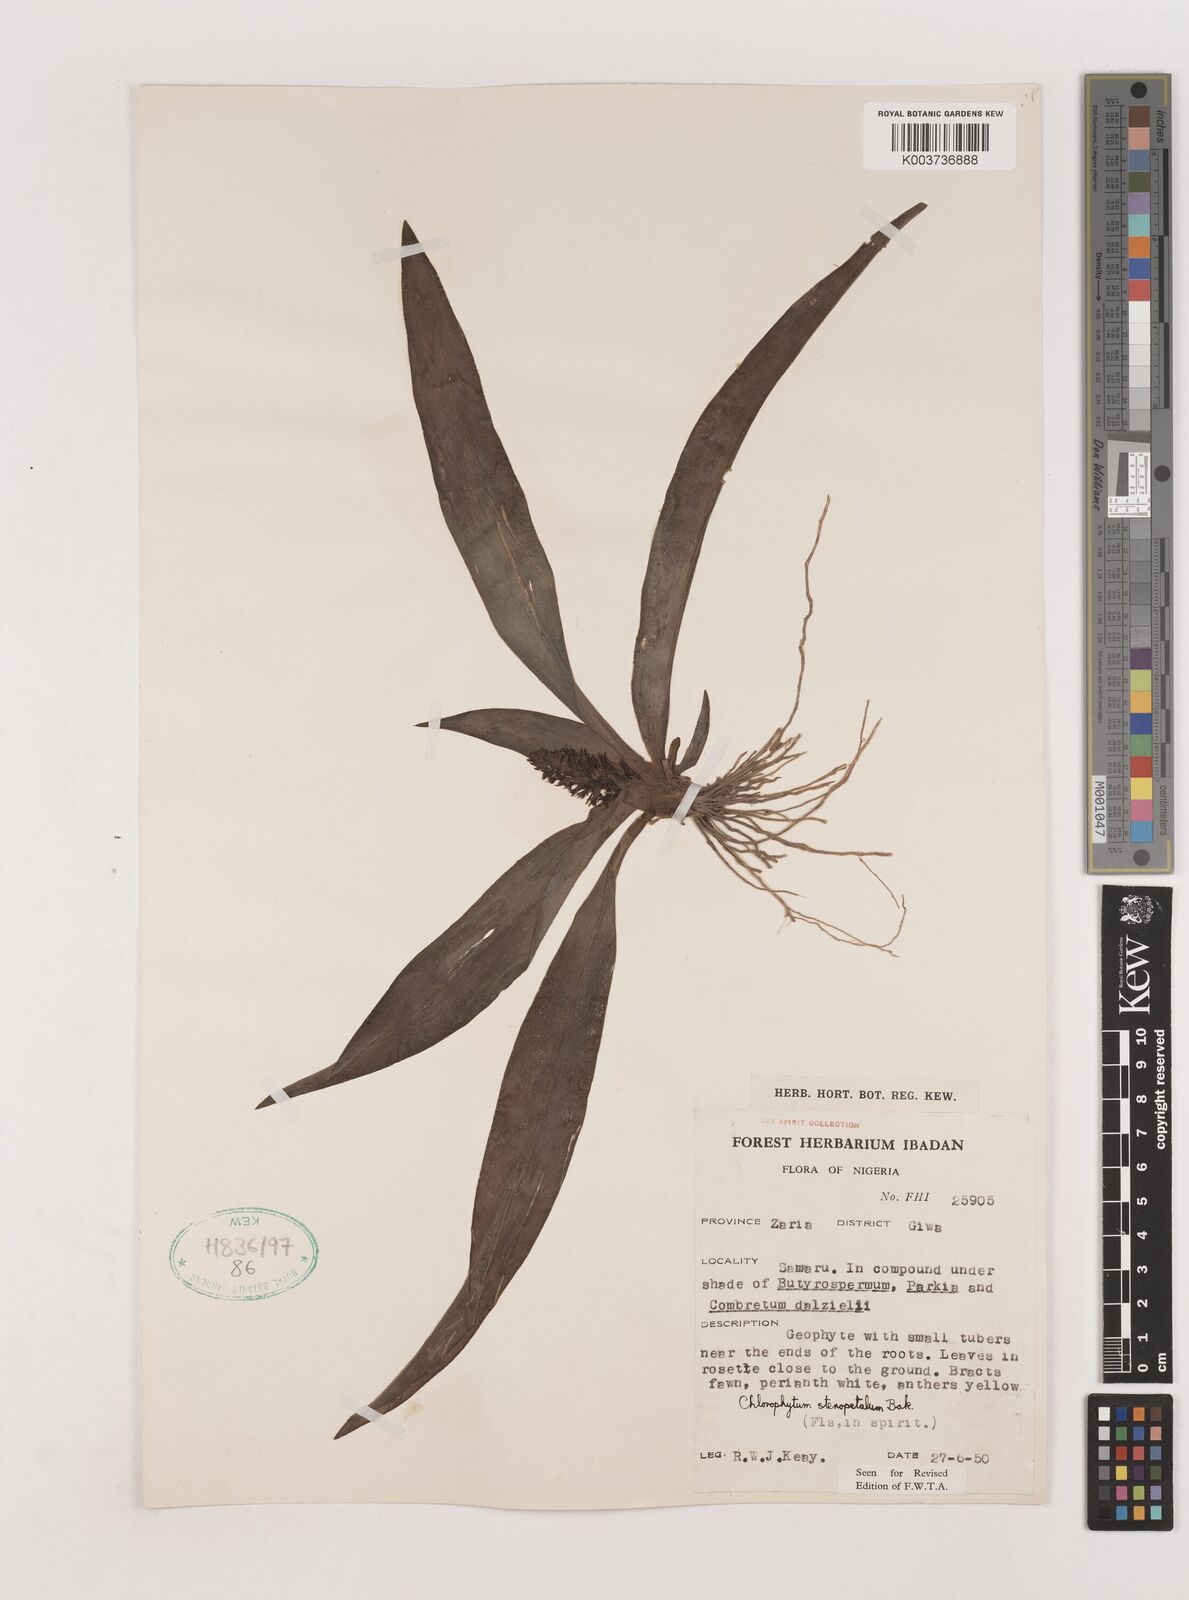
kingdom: Plantae
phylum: Tracheophyta
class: Liliopsida
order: Asparagales
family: Asparagaceae
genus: Chlorophytum
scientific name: Chlorophytum stenopetalum
